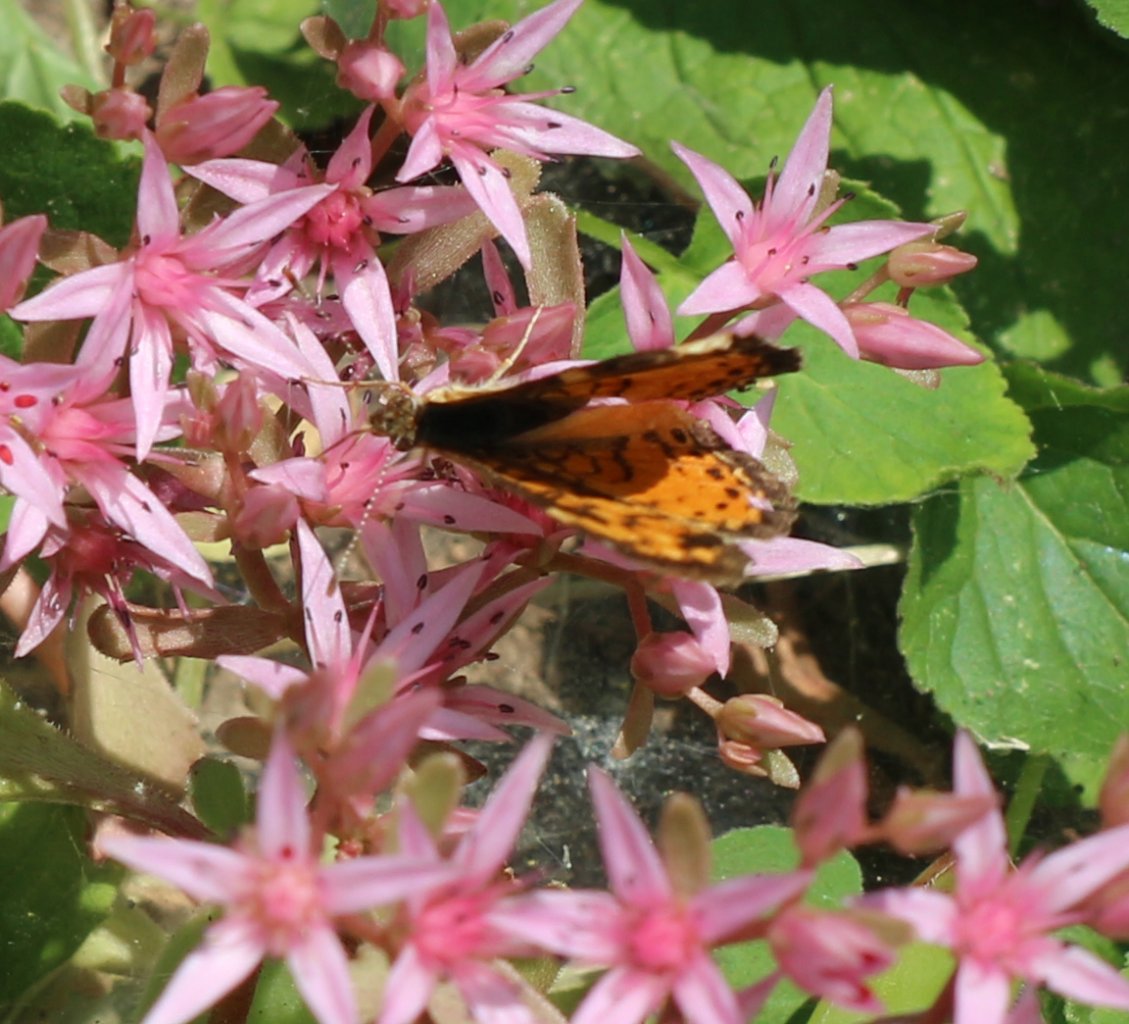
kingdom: Animalia
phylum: Arthropoda
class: Insecta
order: Lepidoptera
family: Nymphalidae
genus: Phyciodes
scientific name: Phyciodes tharos
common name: Pearl Crescent
